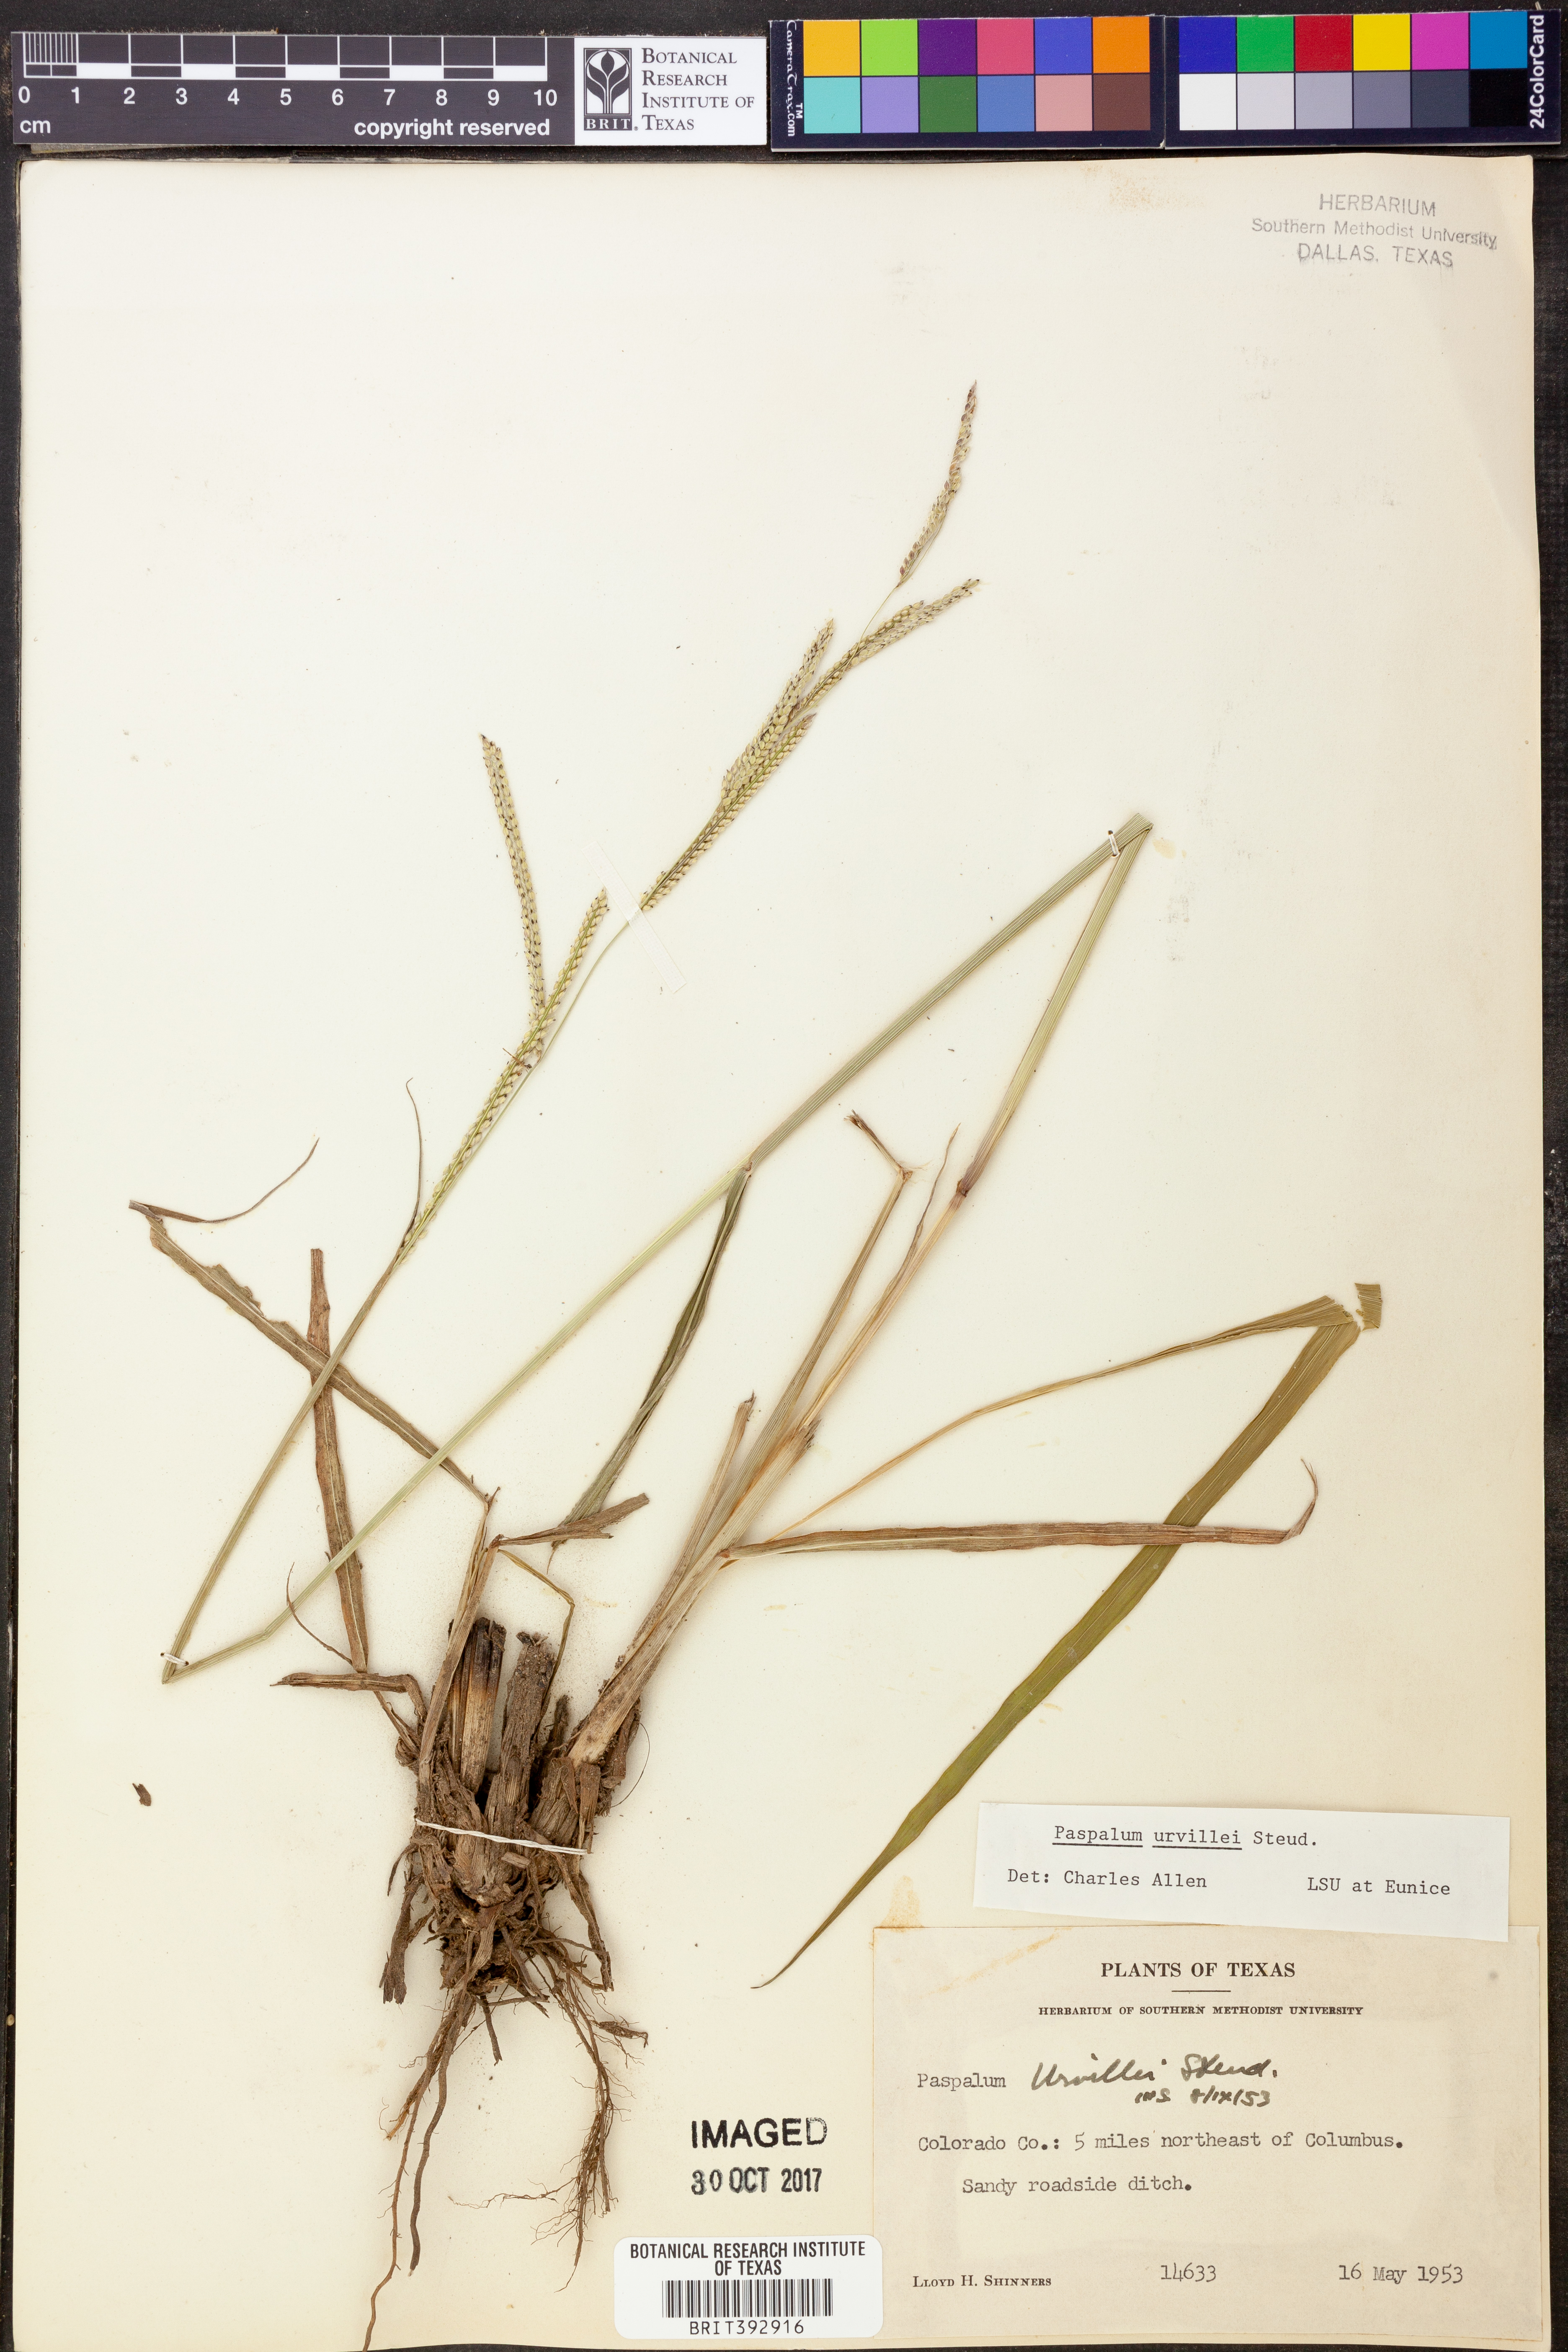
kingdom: Plantae
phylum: Tracheophyta
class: Liliopsida
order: Poales
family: Poaceae
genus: Paspalum
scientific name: Paspalum urvillei
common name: Vasey's grass
